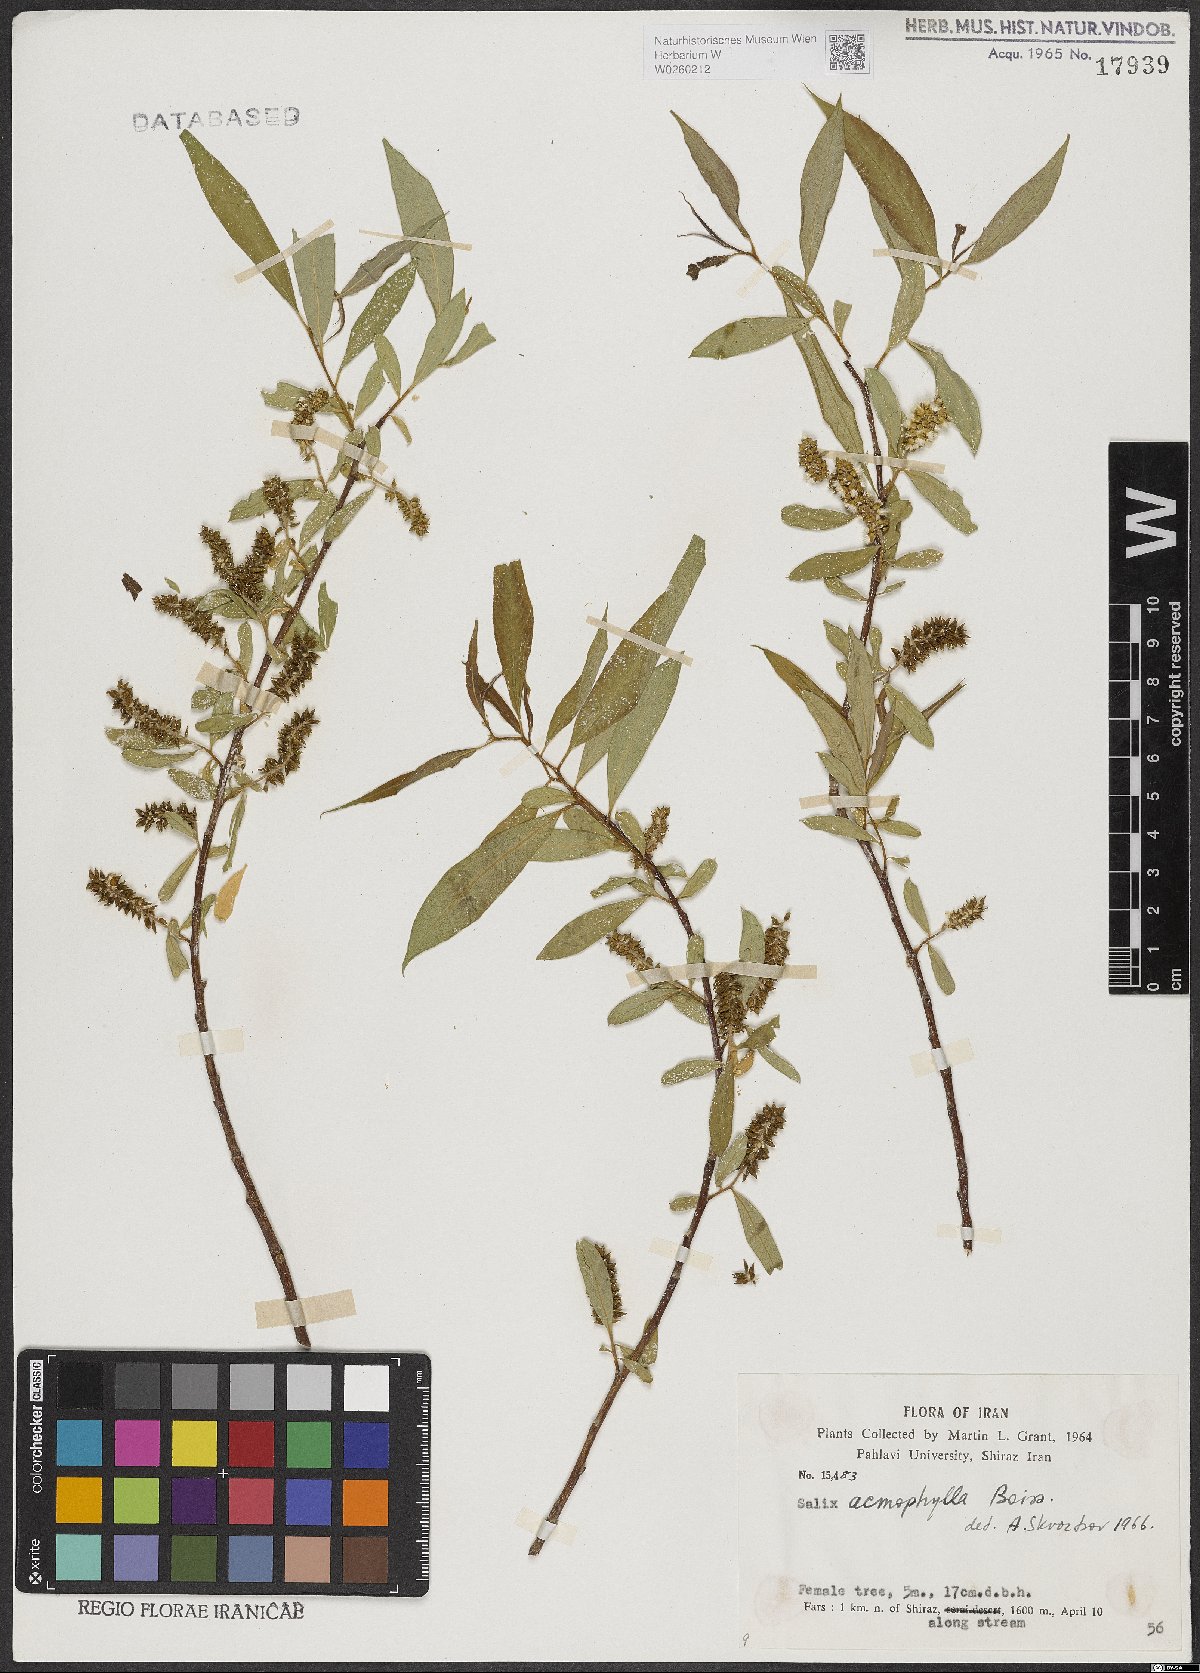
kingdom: Plantae
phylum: Tracheophyta
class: Magnoliopsida
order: Malpighiales
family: Salicaceae
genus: Salix
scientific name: Salix acmophylla
